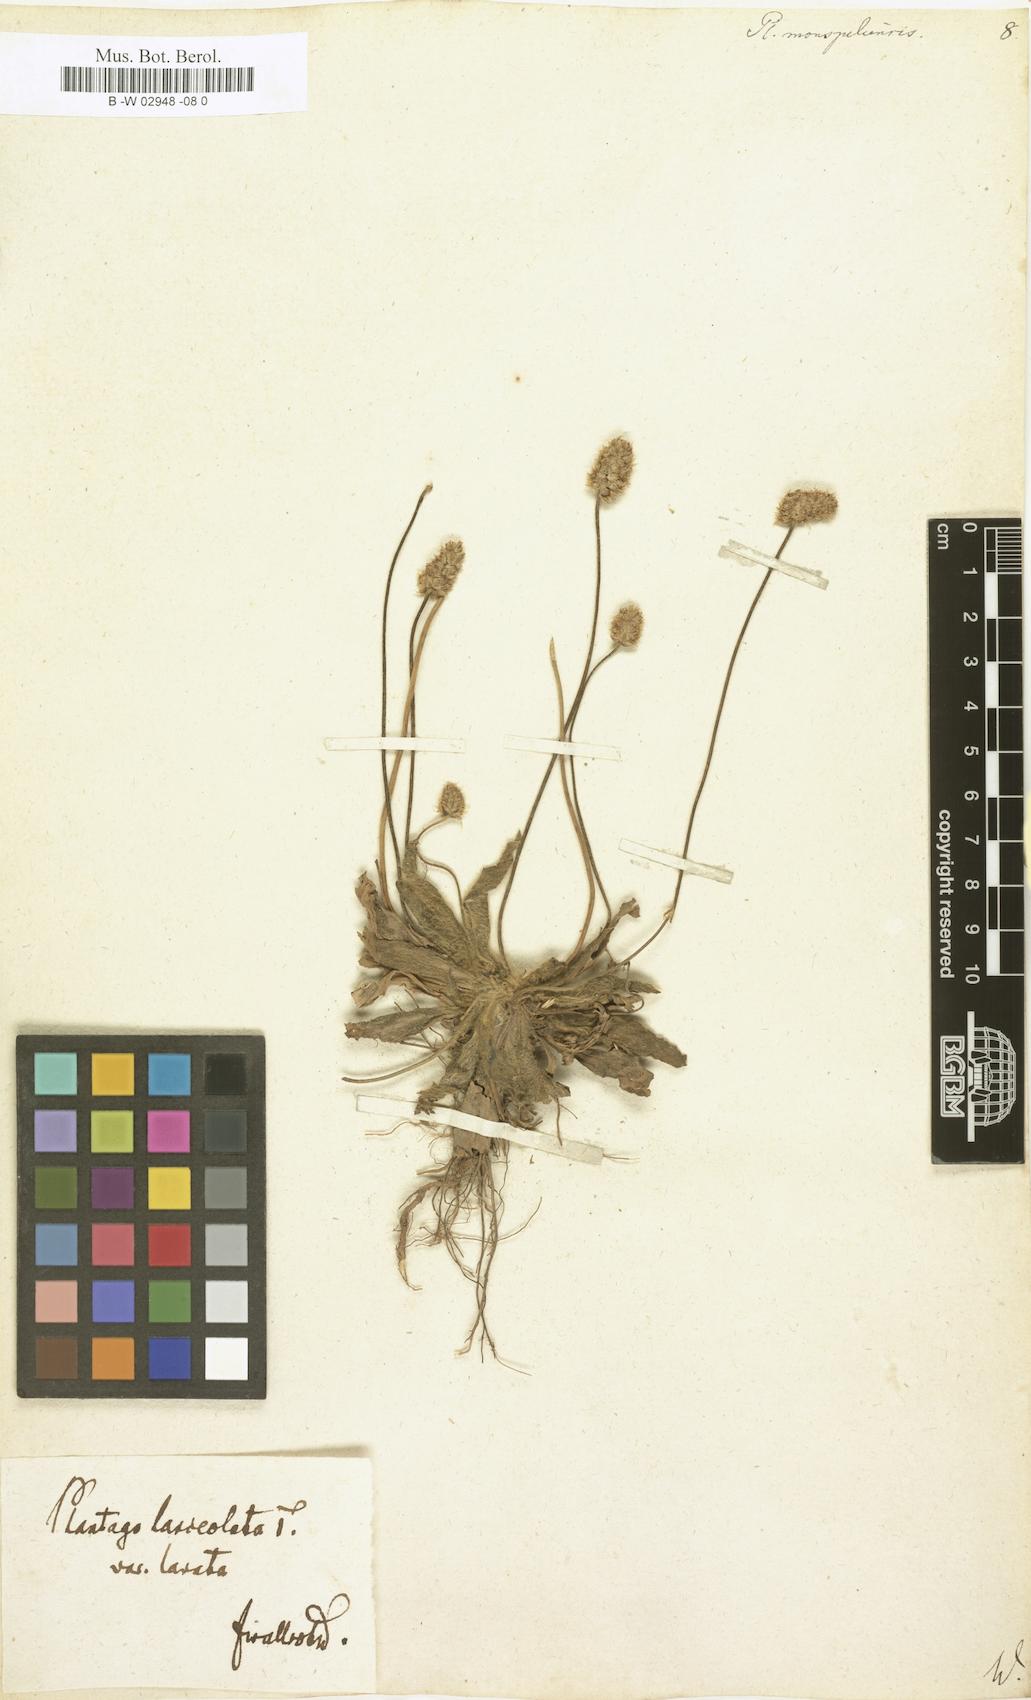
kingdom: Plantae
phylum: Tracheophyta
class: Magnoliopsida
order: Lamiales
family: Plantaginaceae
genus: Plantago
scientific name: Plantago ovata
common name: Blond plantain
